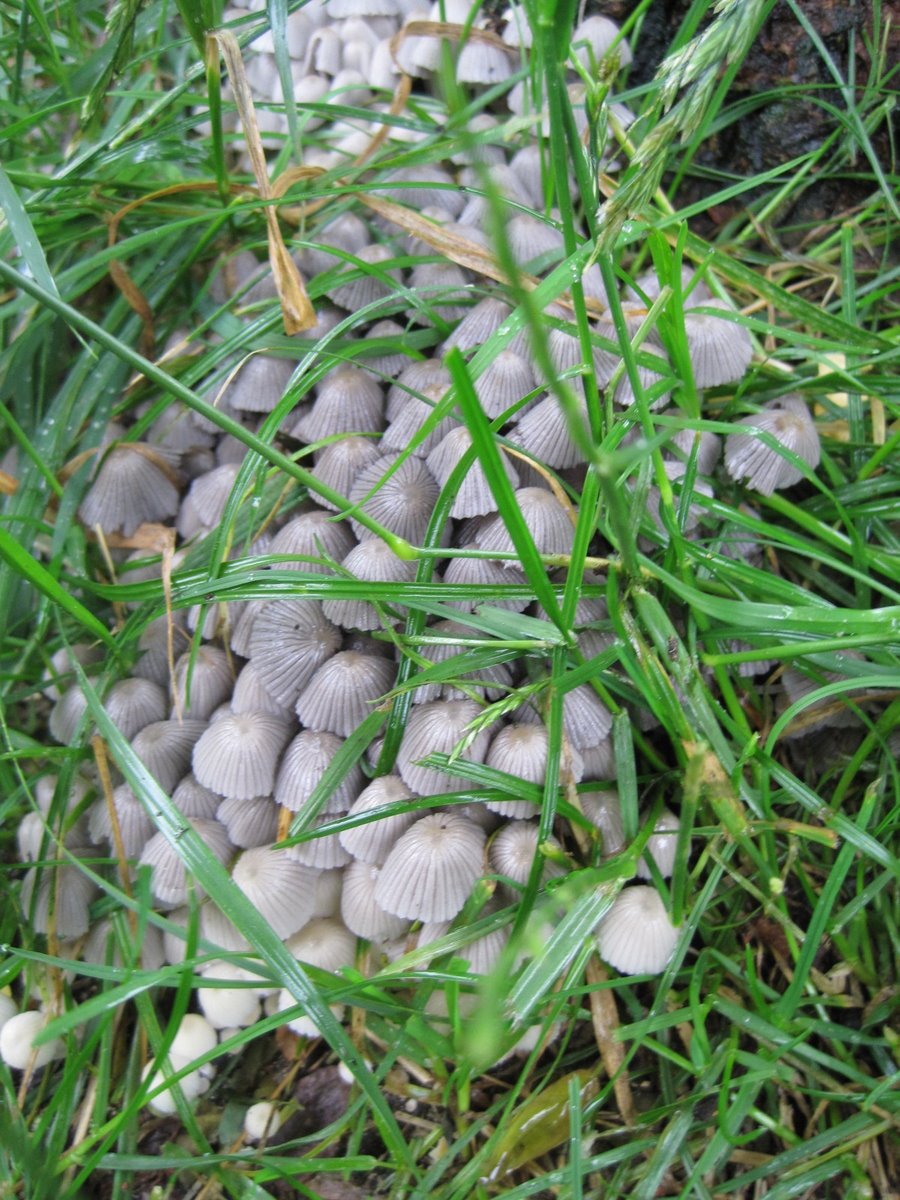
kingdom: Fungi
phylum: Basidiomycota
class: Agaricomycetes
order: Agaricales
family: Psathyrellaceae
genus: Coprinellus
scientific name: Coprinellus disseminatus
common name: bredsået blækhat
